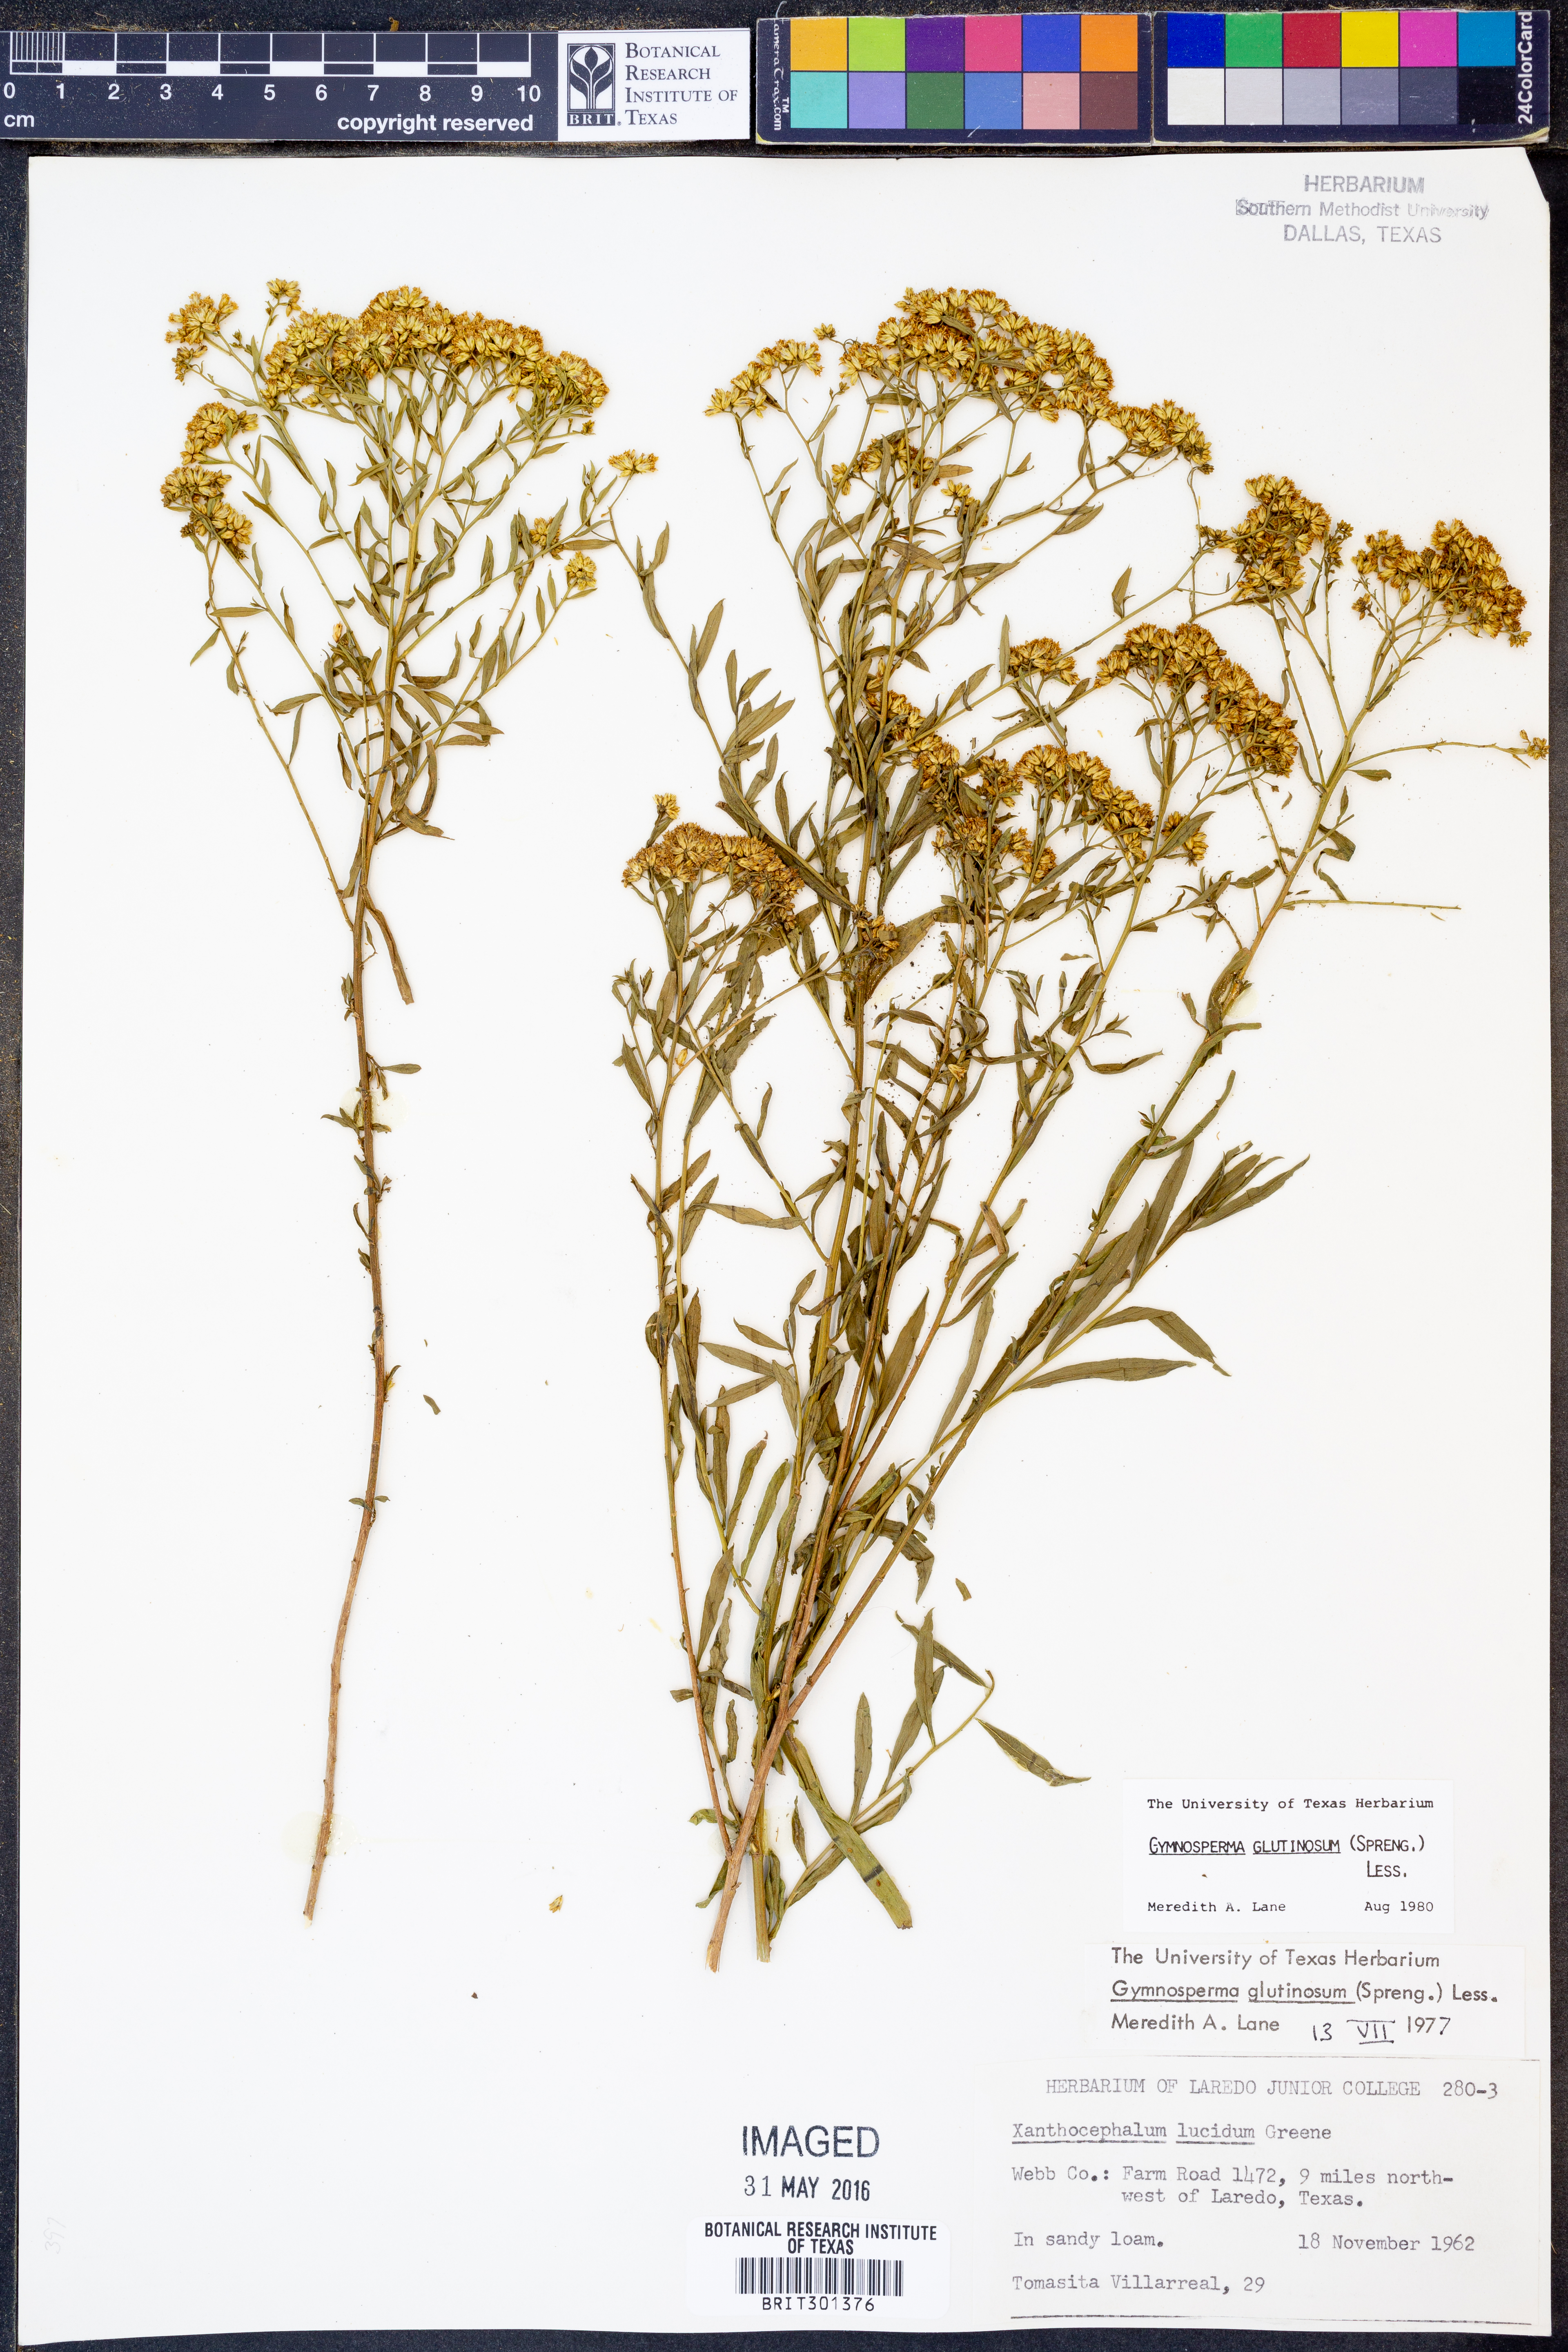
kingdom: Plantae
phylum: Tracheophyta
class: Magnoliopsida
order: Asterales
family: Asteraceae
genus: Gymnosperma
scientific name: Gymnosperma glutinosum
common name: Gumhead
